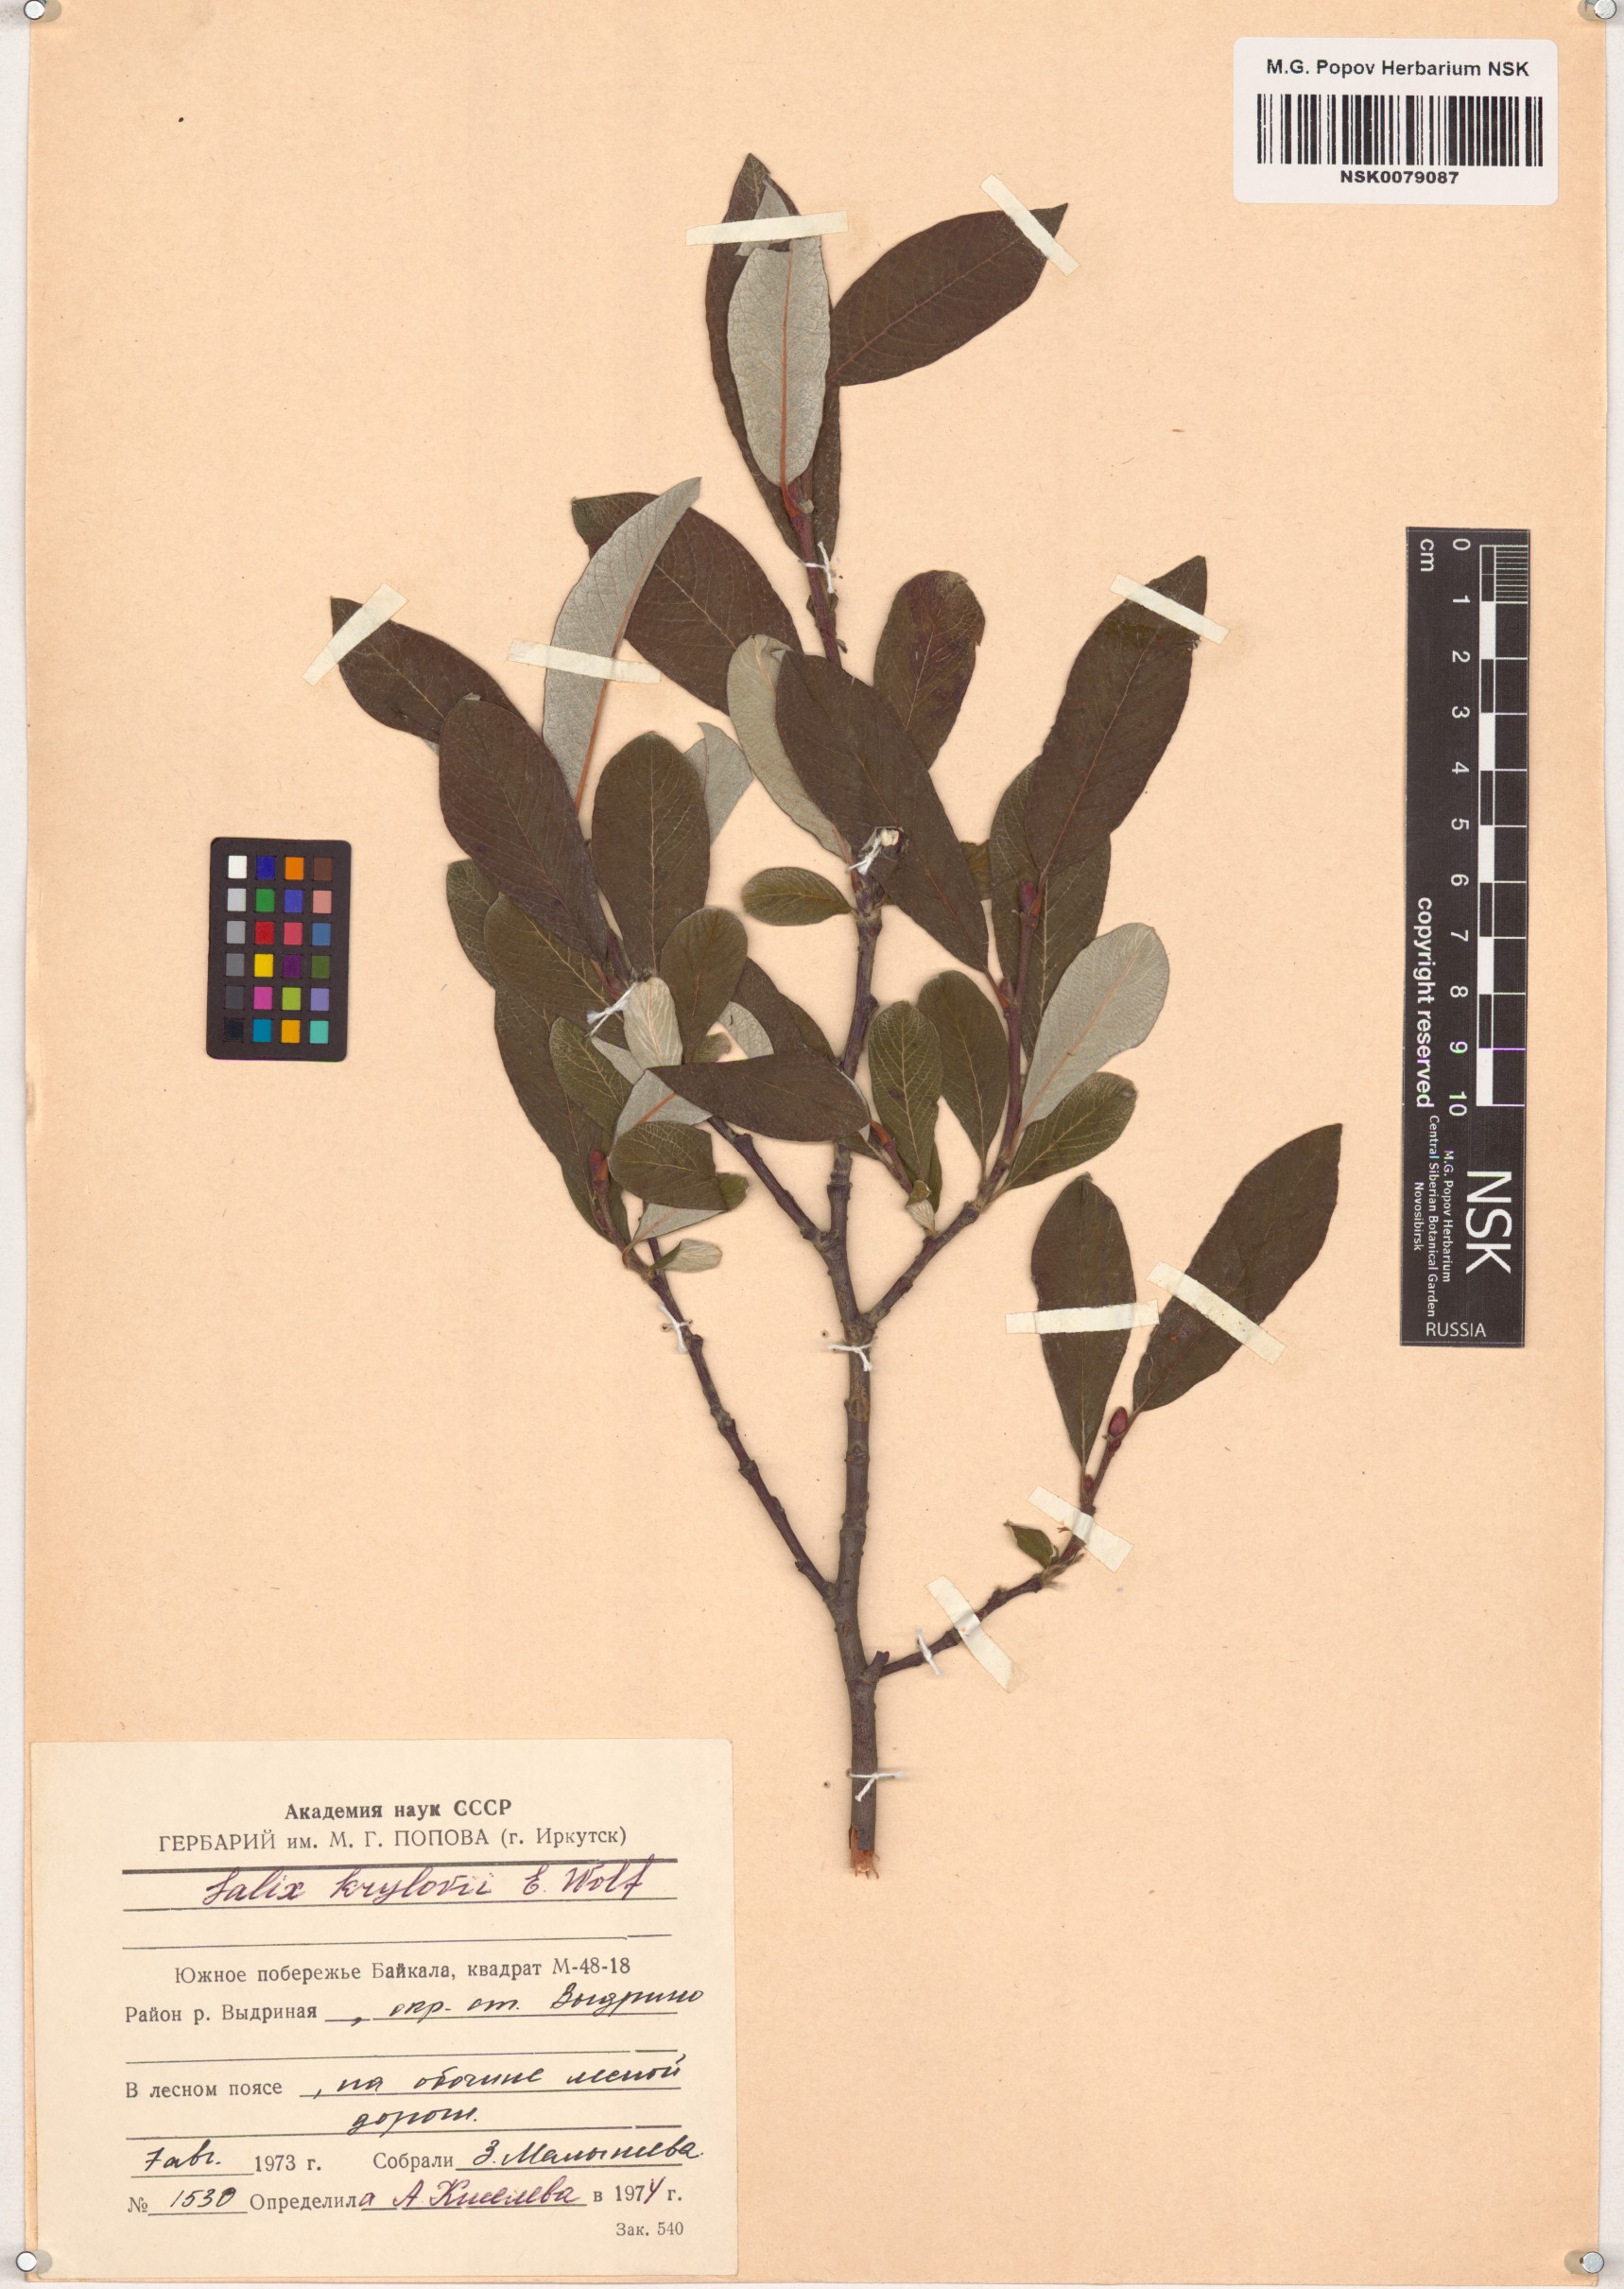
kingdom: Plantae
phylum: Tracheophyta
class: Magnoliopsida
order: Malpighiales
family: Salicaceae
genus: Salix
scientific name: Salix krylovii
